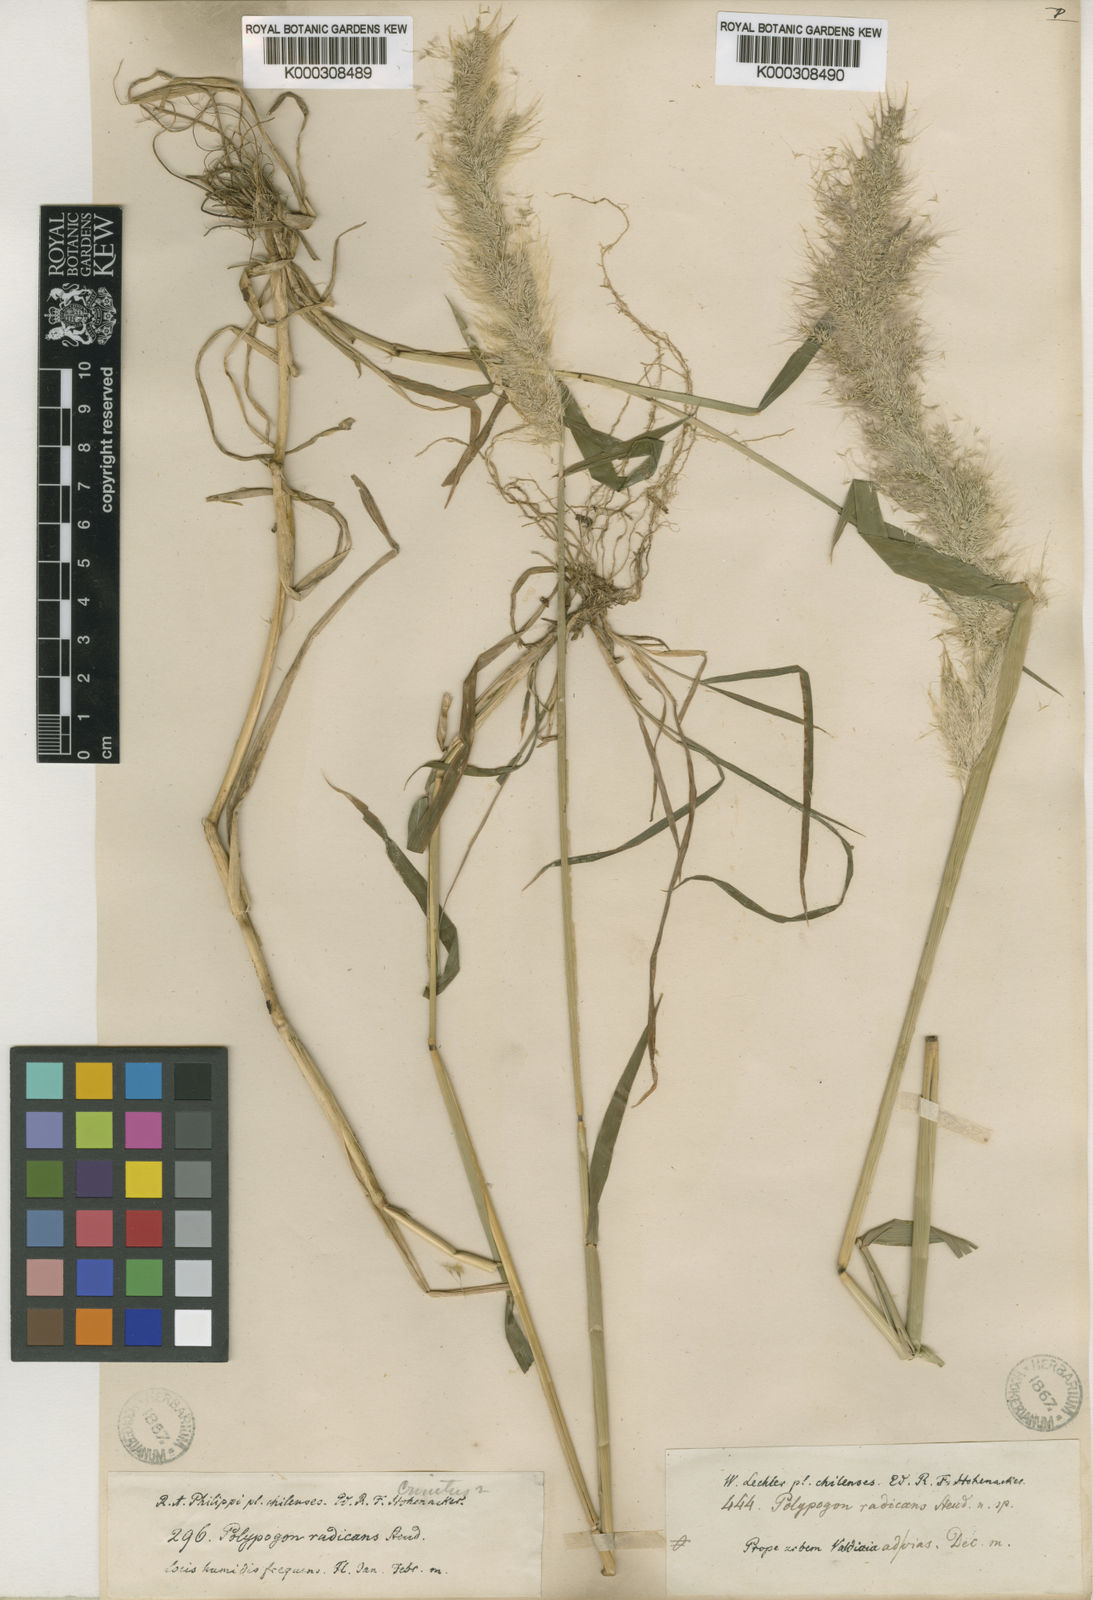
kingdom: Plantae
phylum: Tracheophyta
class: Liliopsida
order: Poales
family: Poaceae
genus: Polypogon
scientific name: Polypogon australis
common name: Chilean rabbitsfoot grass
